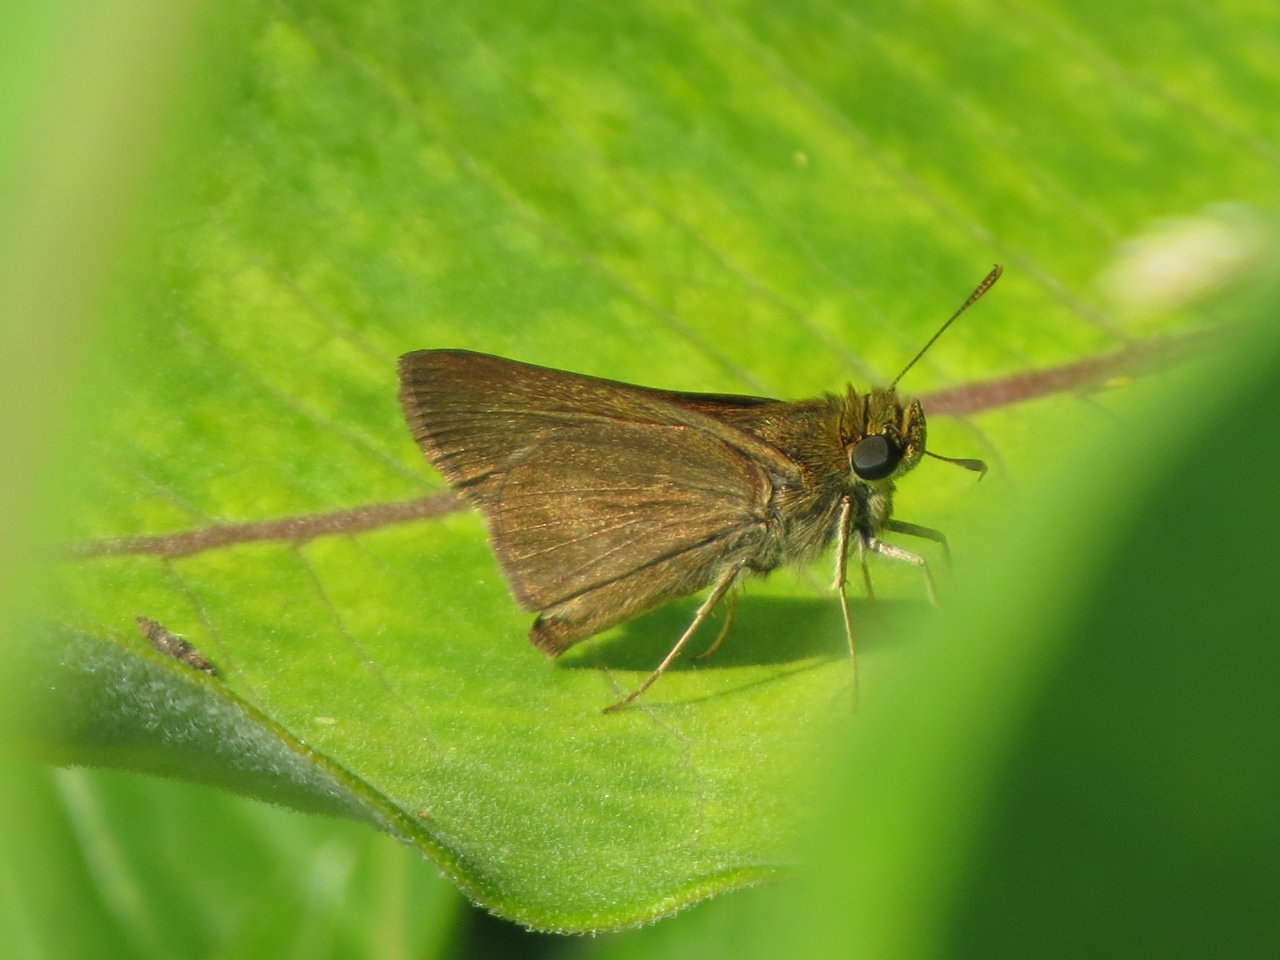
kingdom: Animalia
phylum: Arthropoda
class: Insecta
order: Lepidoptera
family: Hesperiidae
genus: Euphyes
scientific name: Euphyes vestris
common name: Dun Skipper
